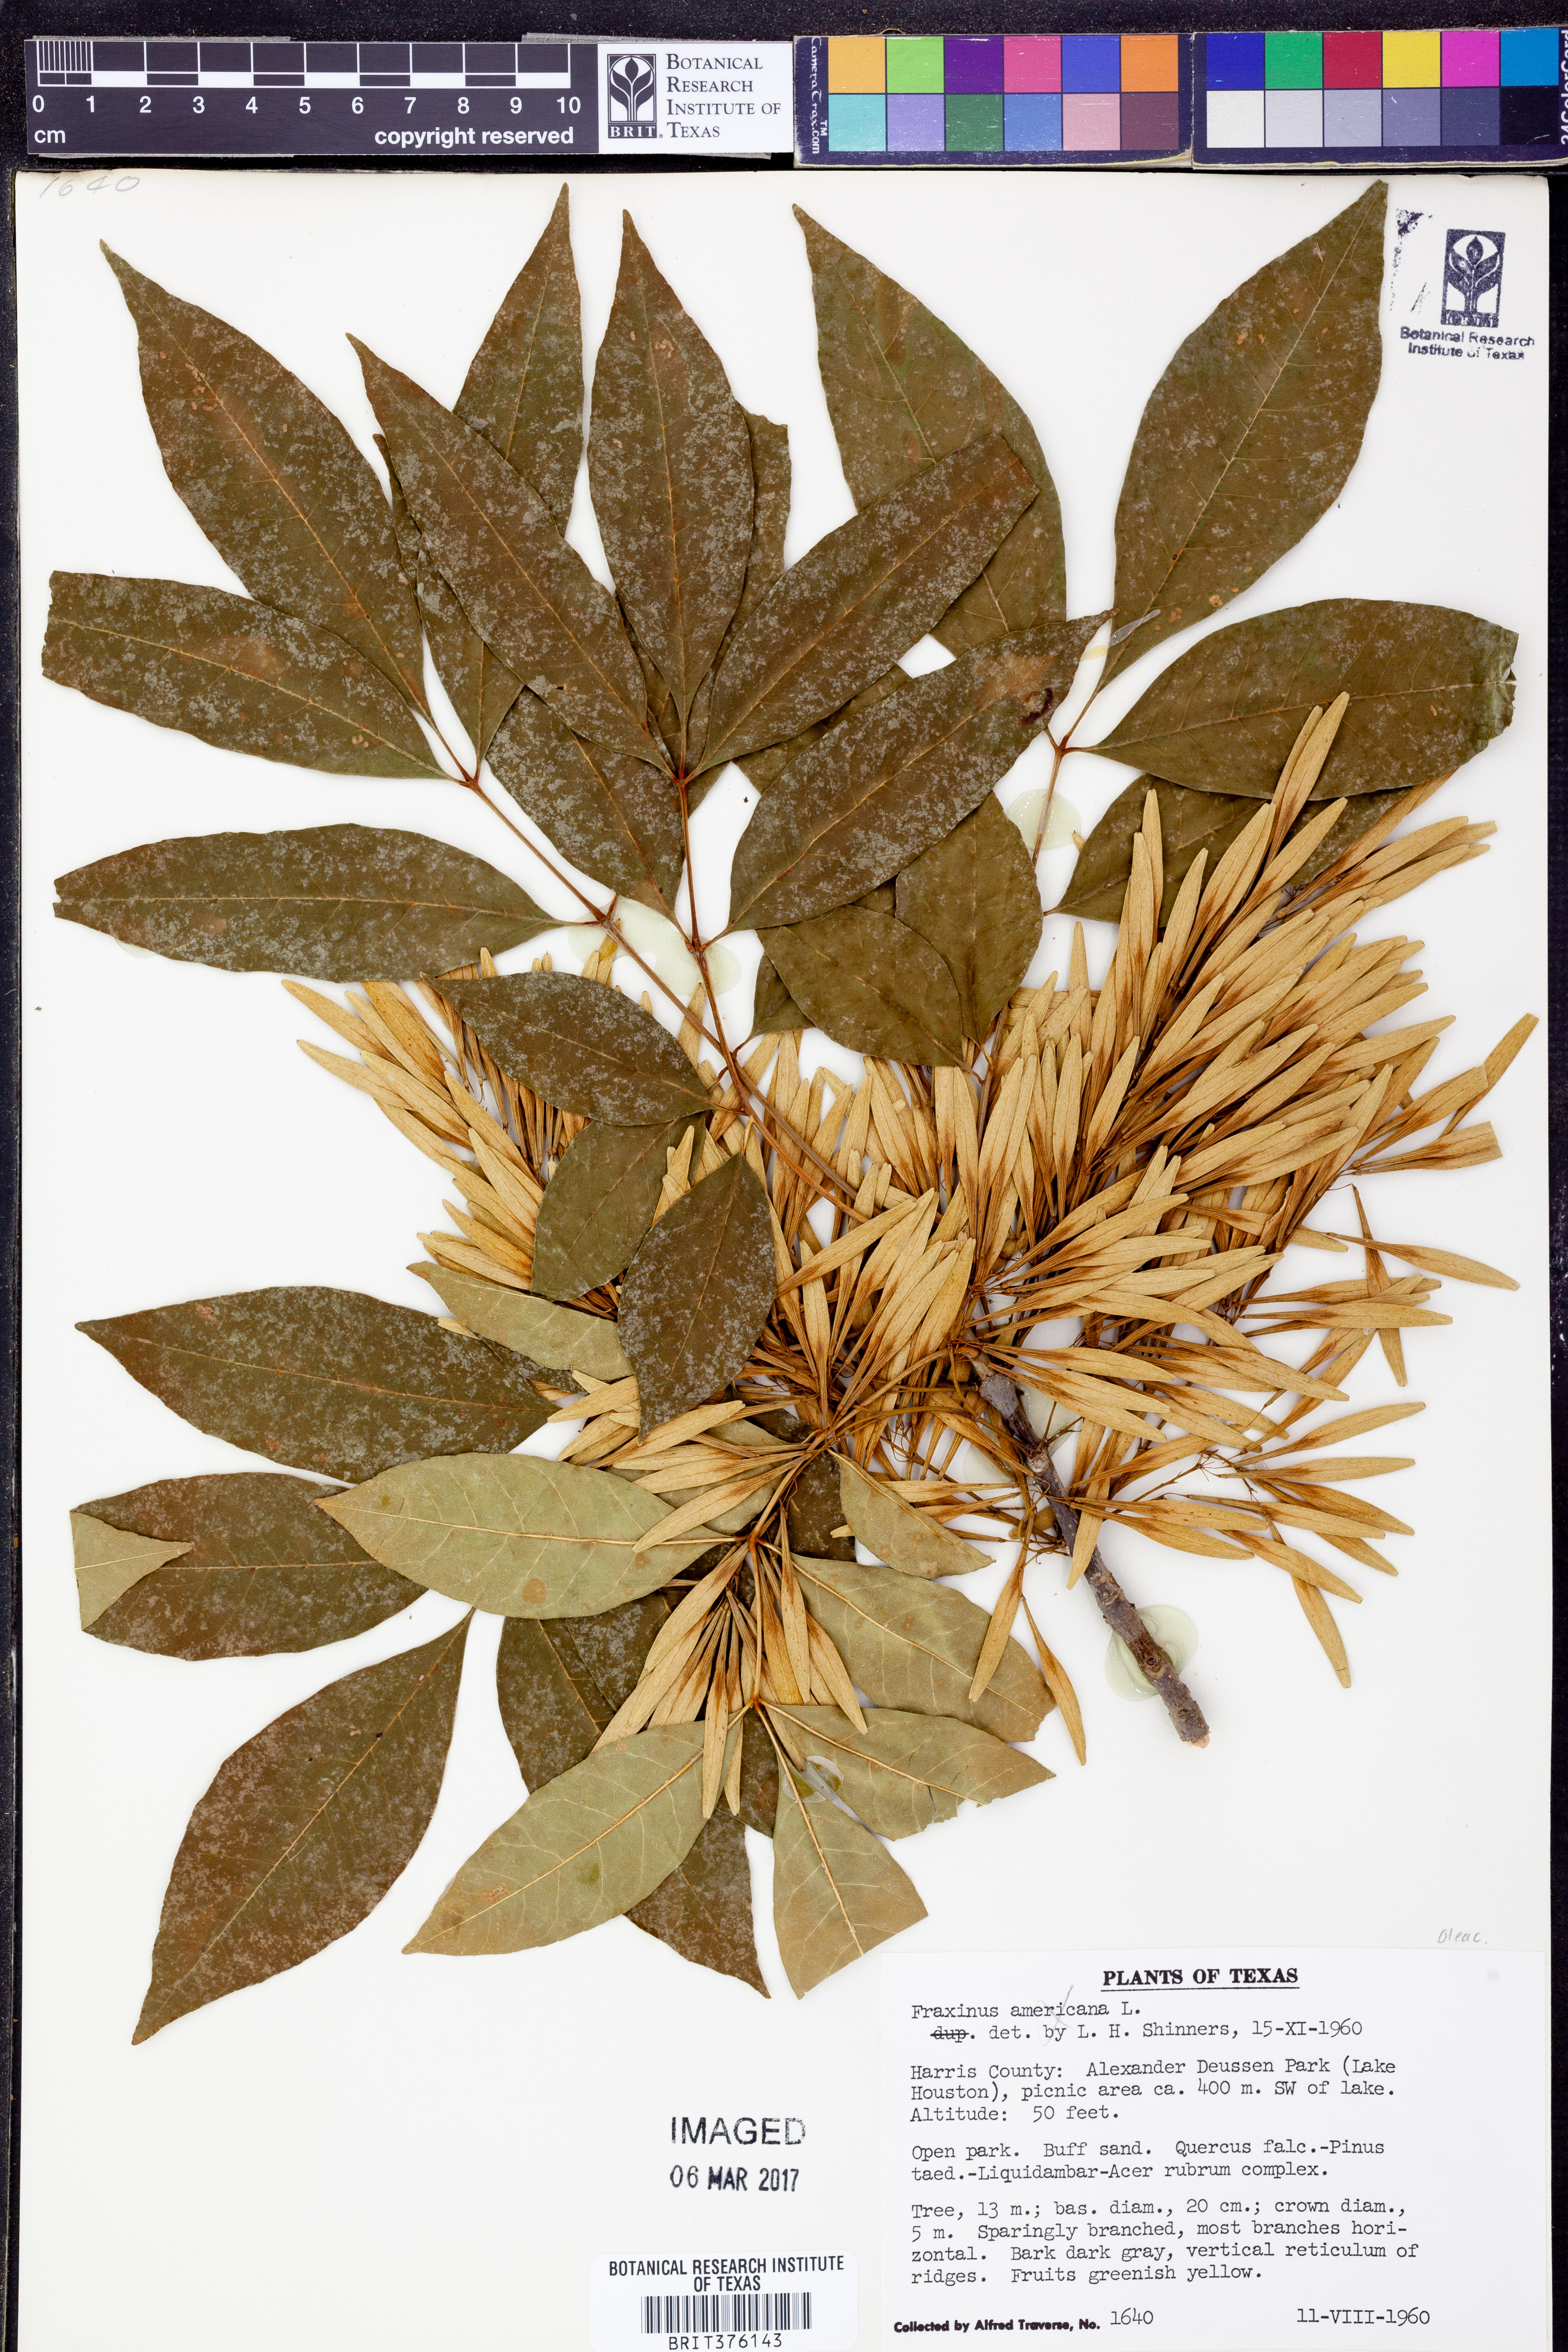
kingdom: Plantae
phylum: Tracheophyta
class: Magnoliopsida
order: Lamiales
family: Oleaceae
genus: Fraxinus
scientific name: Fraxinus americana
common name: White ash
